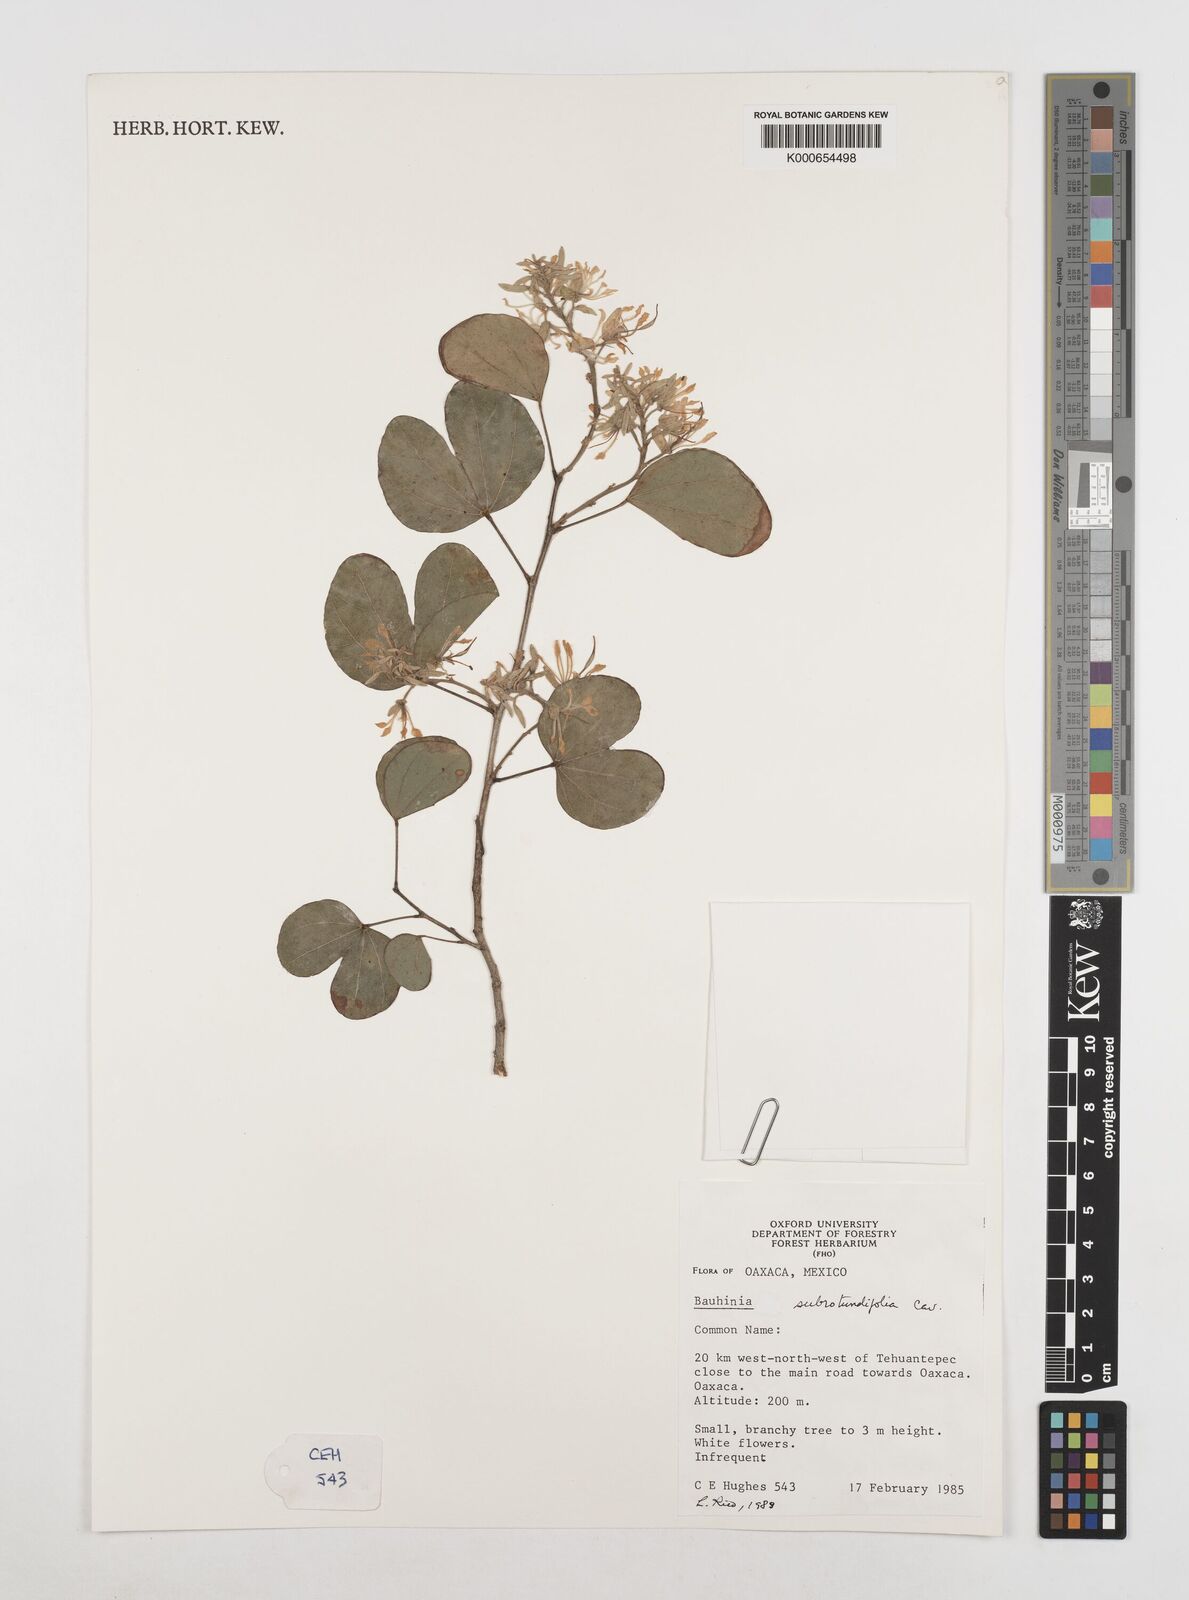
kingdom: Plantae
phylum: Tracheophyta
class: Magnoliopsida
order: Fabales
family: Fabaceae
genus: Bauhinia
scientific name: Bauhinia subrotundifolia
